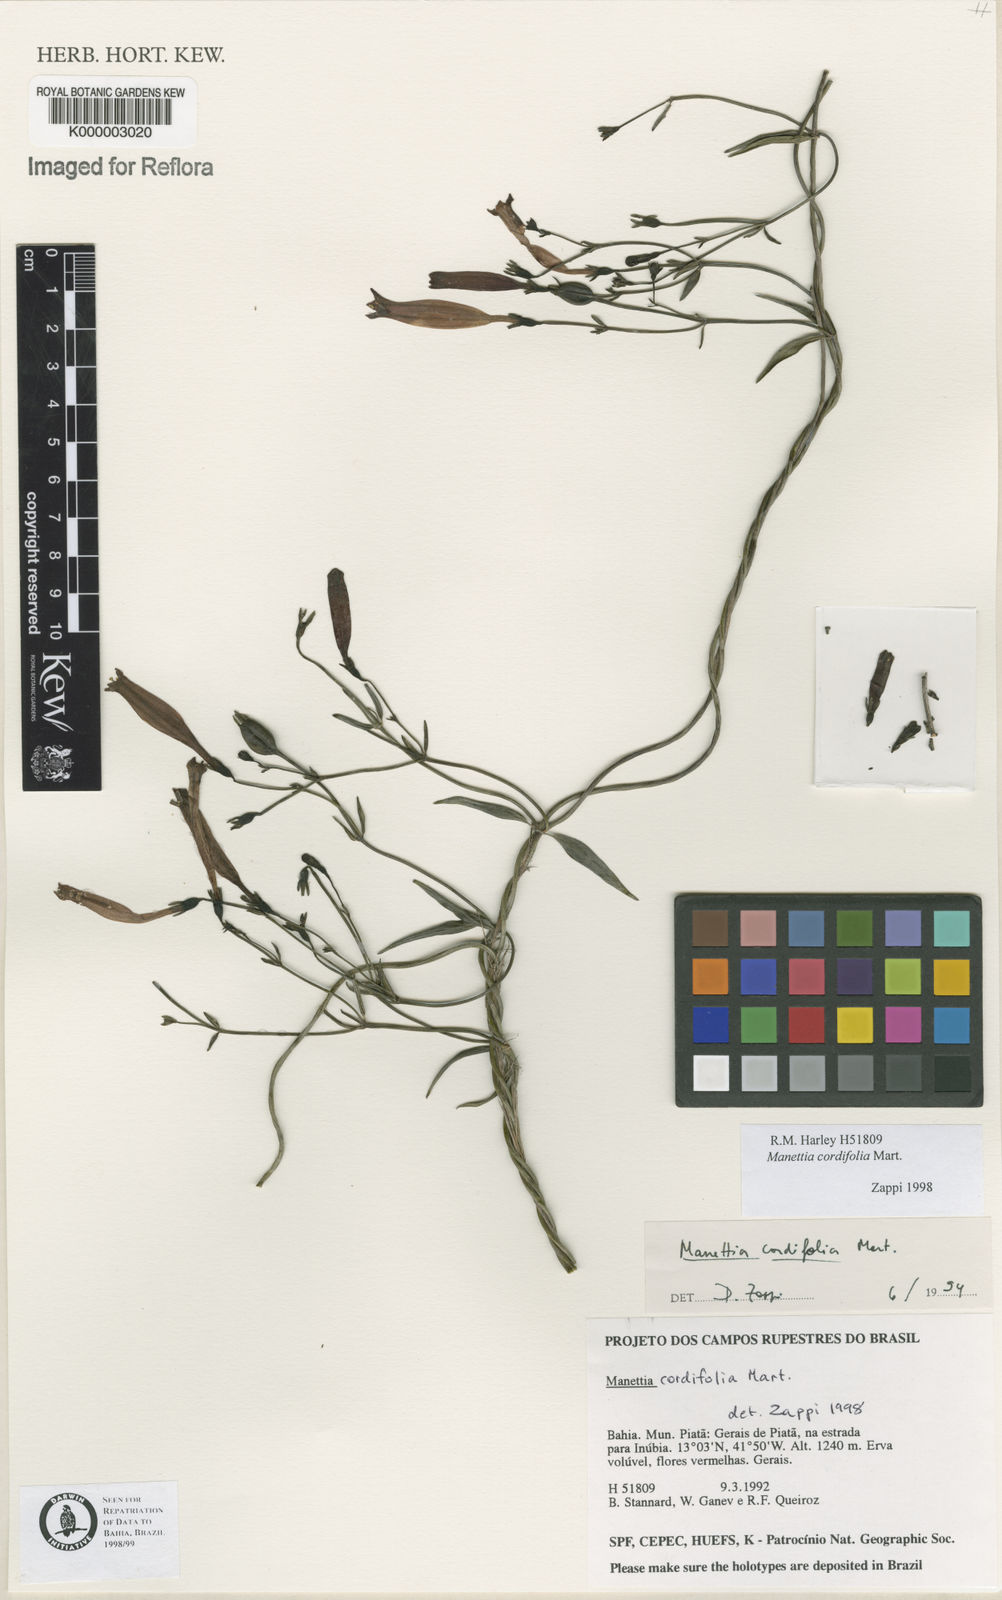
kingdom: Plantae
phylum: Tracheophyta
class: Magnoliopsida
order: Gentianales
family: Rubiaceae
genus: Manettia
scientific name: Manettia cordifolia
